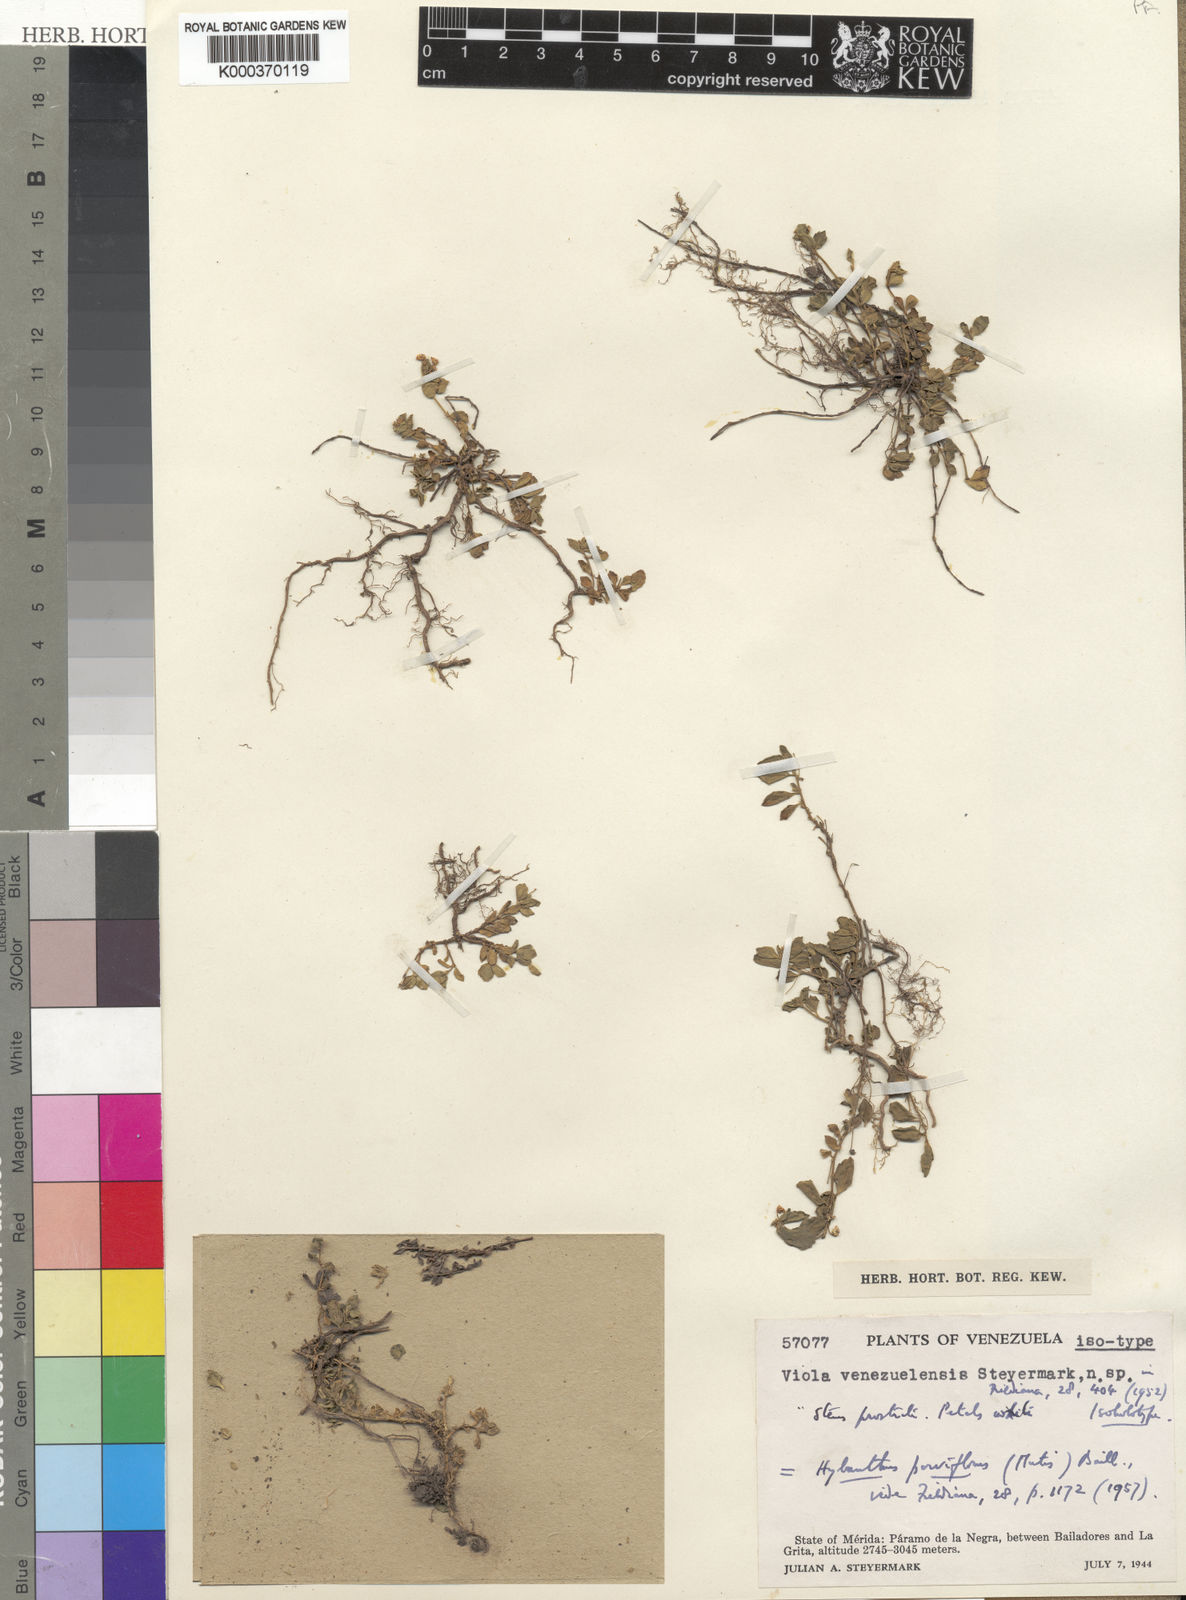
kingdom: Plantae
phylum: Tracheophyta
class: Magnoliopsida
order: Malpighiales
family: Violaceae
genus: Pombalia
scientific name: Pombalia parviflora
